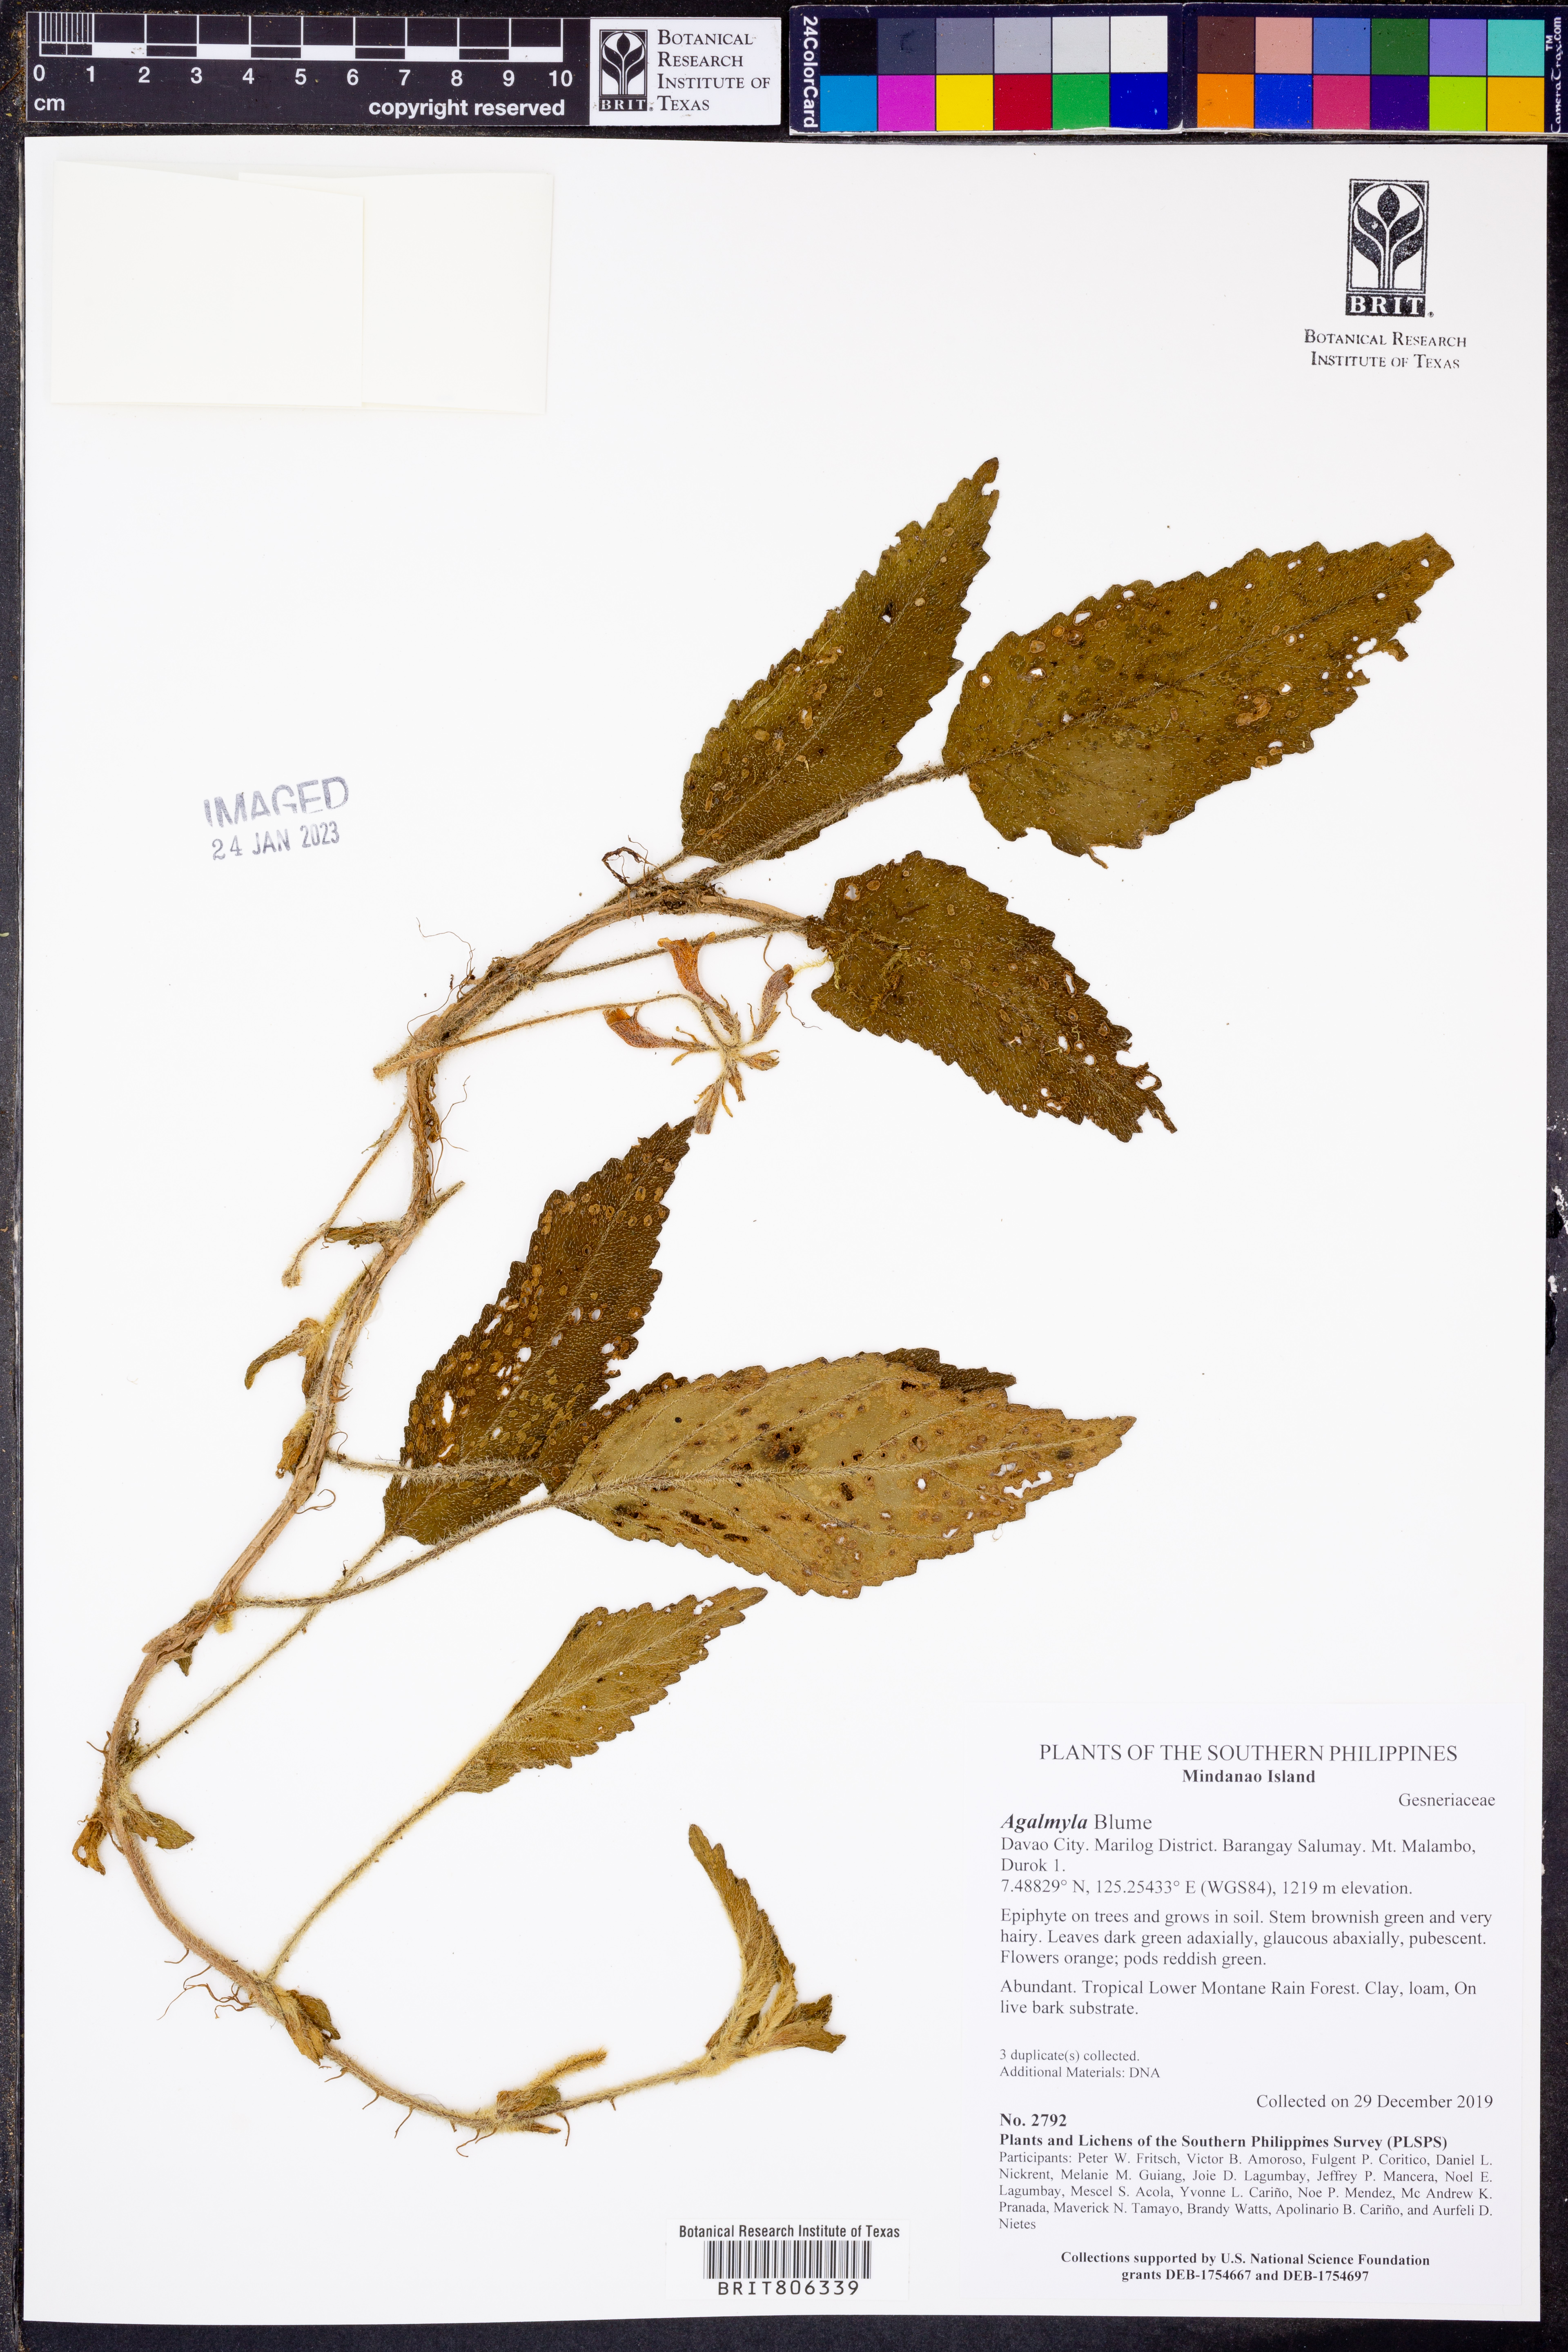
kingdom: Plantae
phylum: Tracheophyta
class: Magnoliopsida
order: Lamiales
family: Gesneriaceae
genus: Agalmyla
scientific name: Agalmyla
